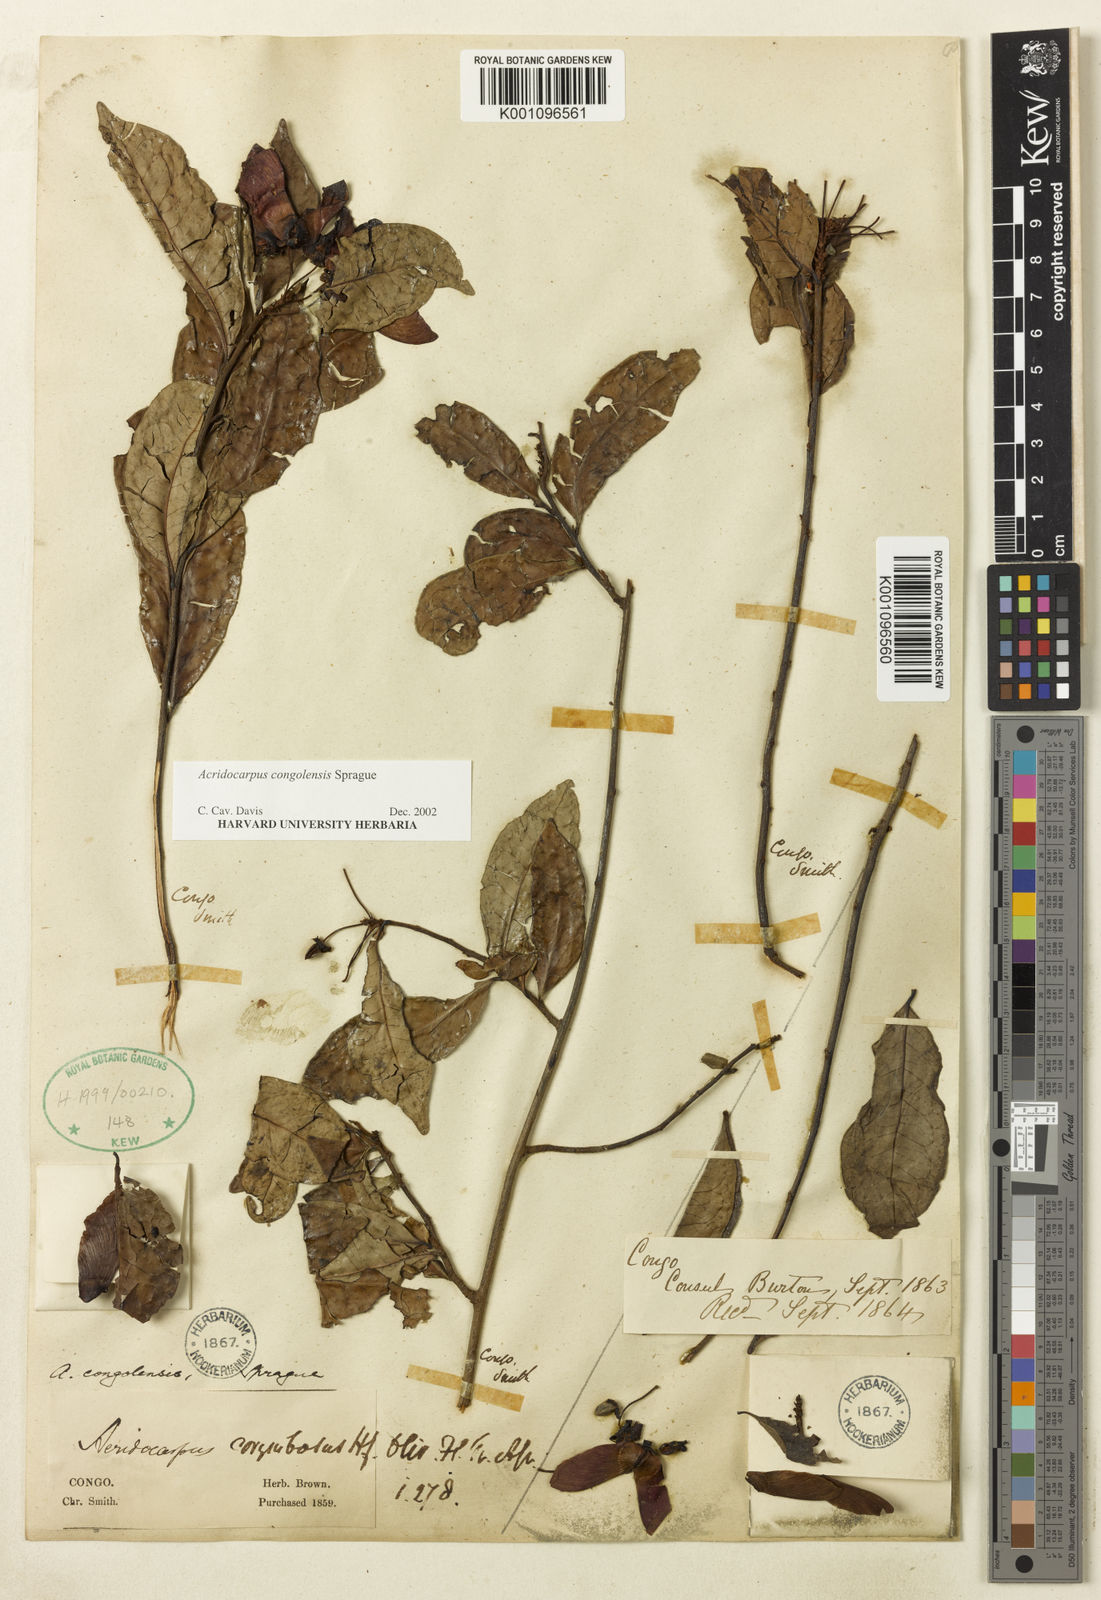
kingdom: Plantae
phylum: Tracheophyta
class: Magnoliopsida
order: Malpighiales
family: Malpighiaceae
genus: Acridocarpus
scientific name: Acridocarpus congolensis
